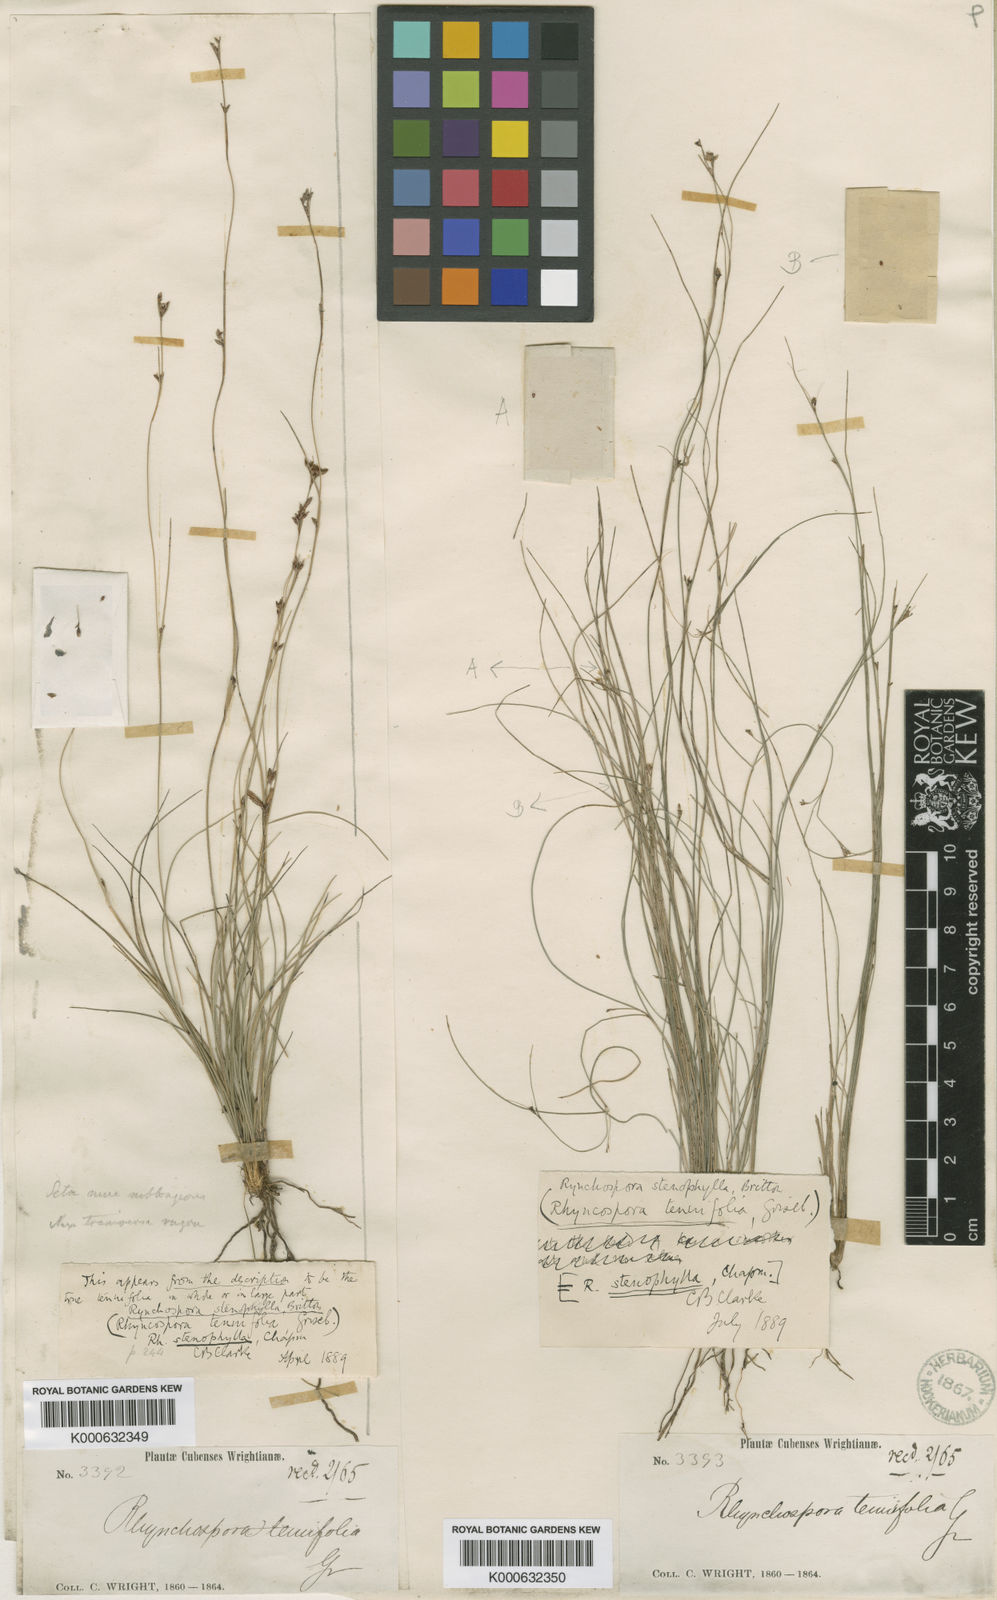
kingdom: Plantae
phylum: Tracheophyta
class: Liliopsida
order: Poales
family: Cyperaceae
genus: Rhynchospora
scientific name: Rhynchospora stenophylla
